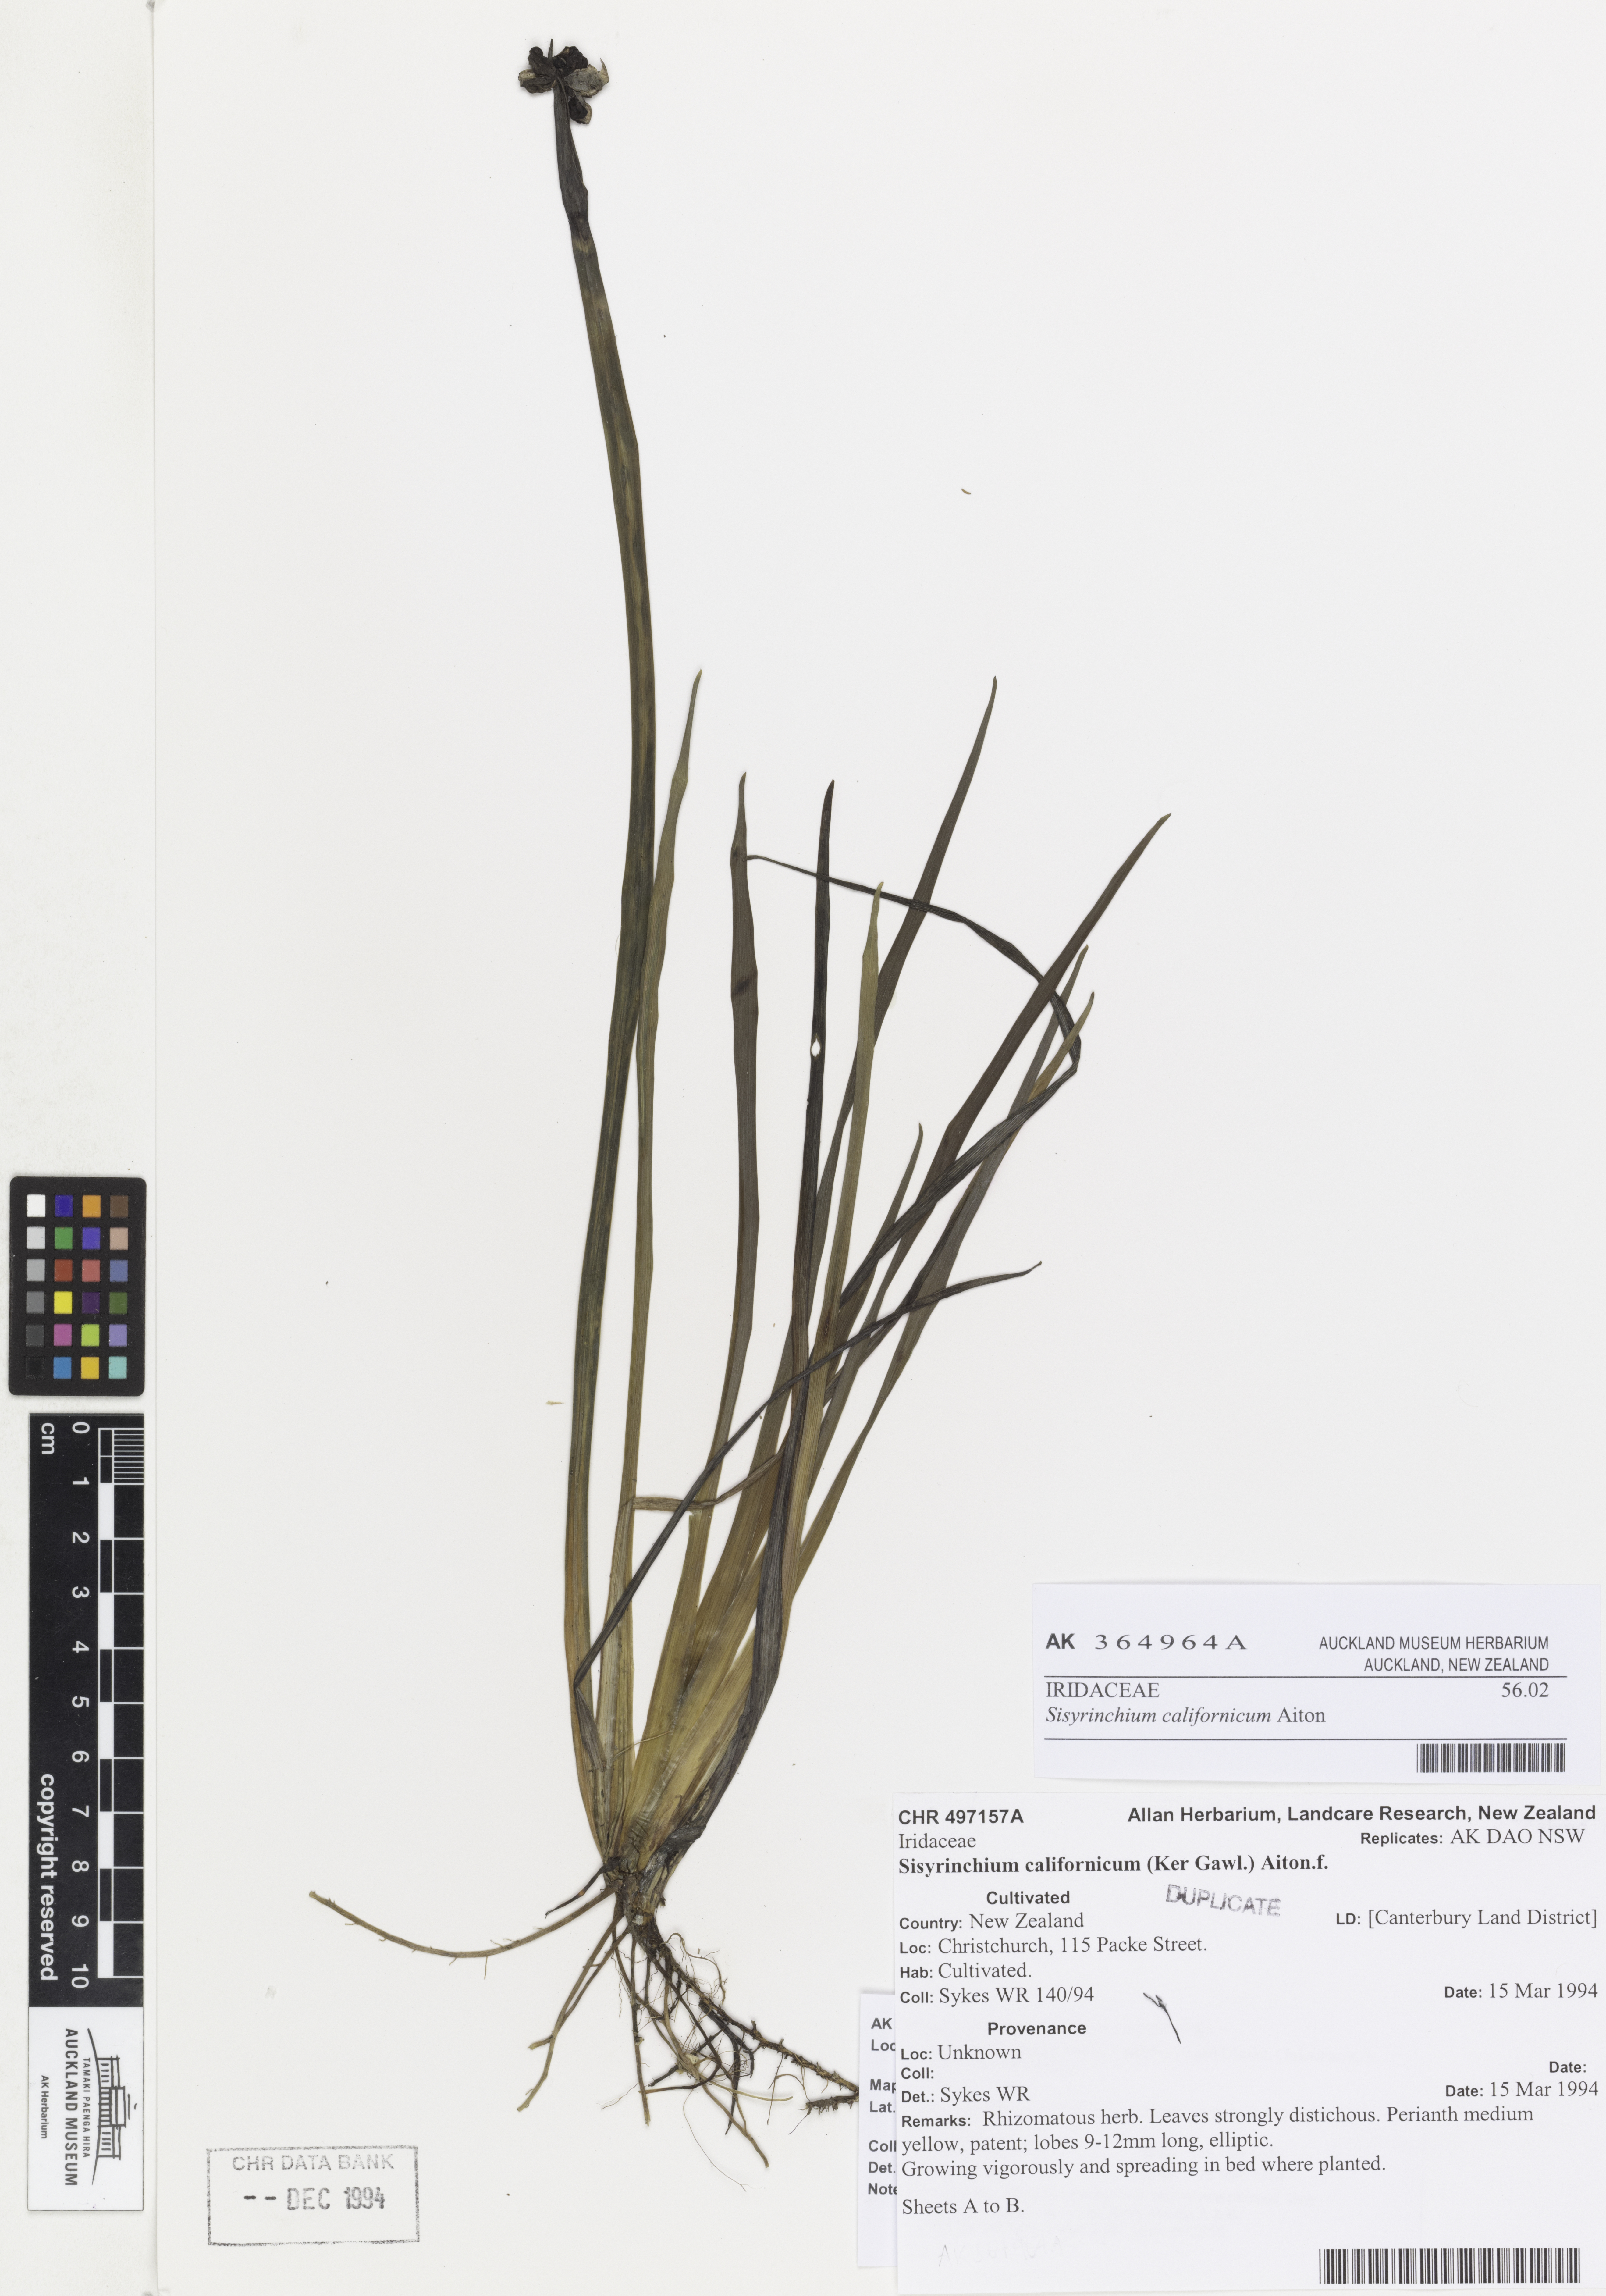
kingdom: Plantae
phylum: Tracheophyta
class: Liliopsida
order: Asparagales
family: Iridaceae
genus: Sisyrinchium
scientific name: Sisyrinchium californicum
